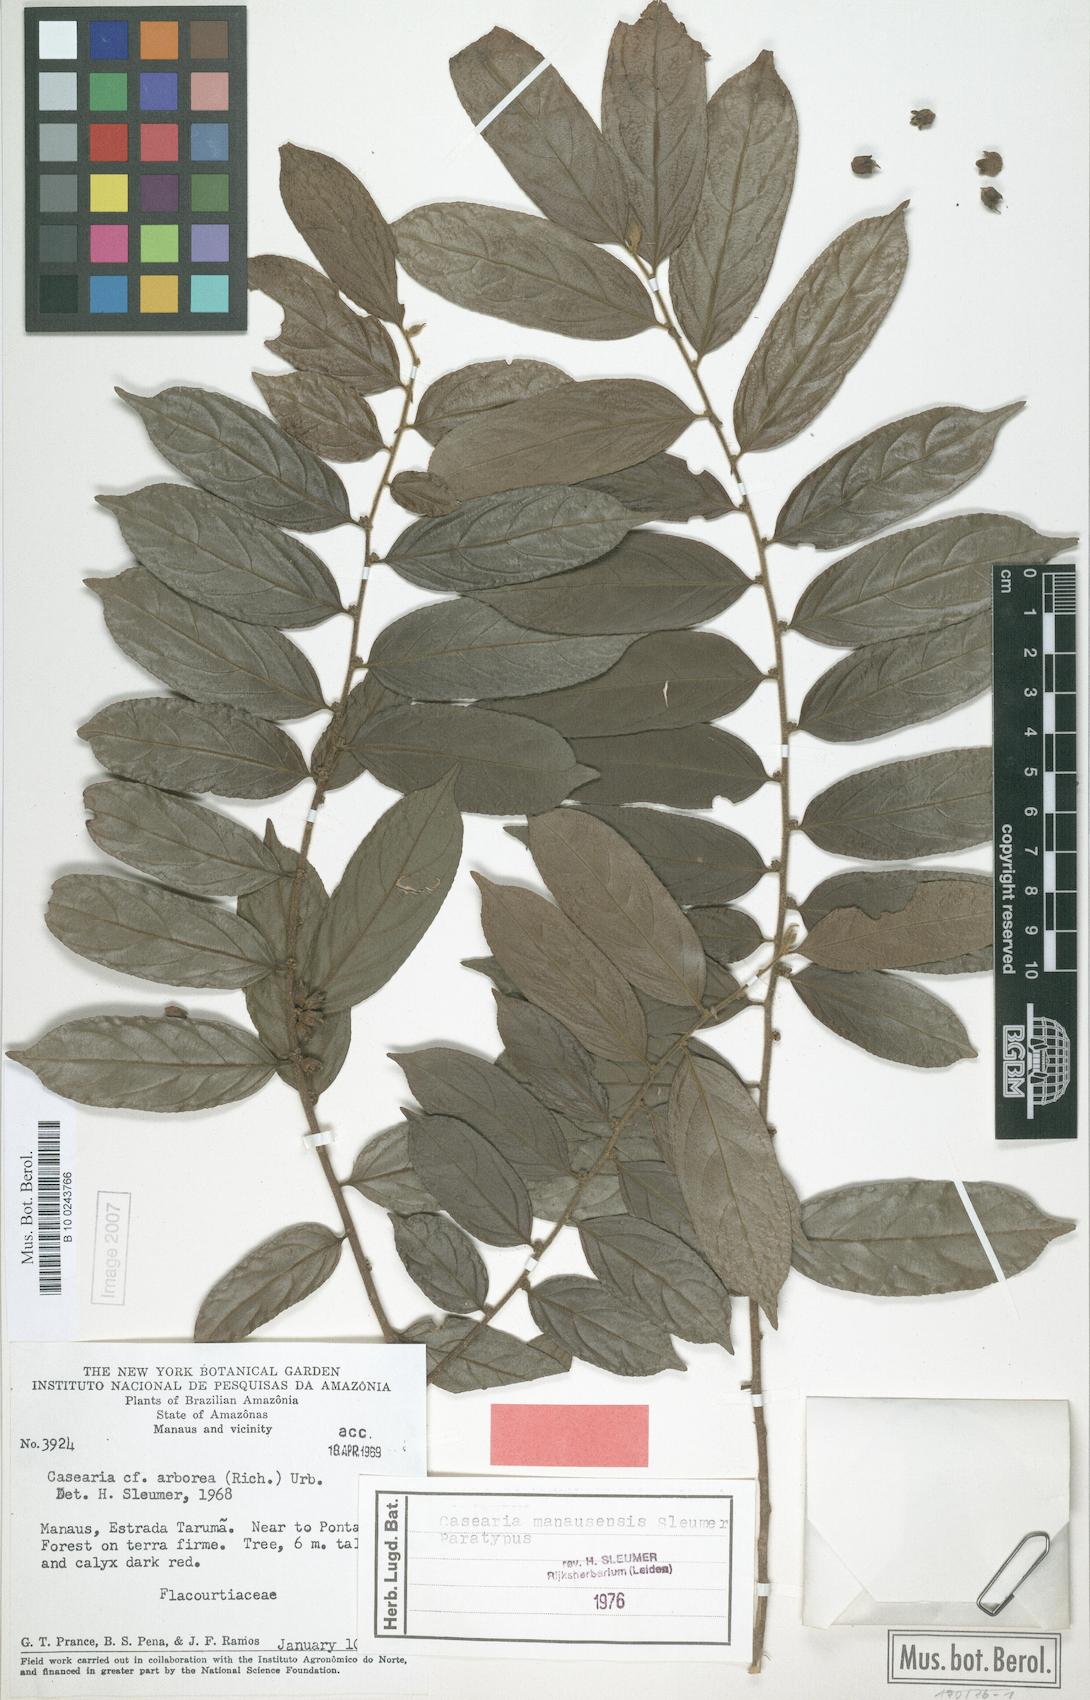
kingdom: Plantae
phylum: Tracheophyta
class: Magnoliopsida
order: Malpighiales
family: Salicaceae
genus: Casearia
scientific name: Casearia manausensis
